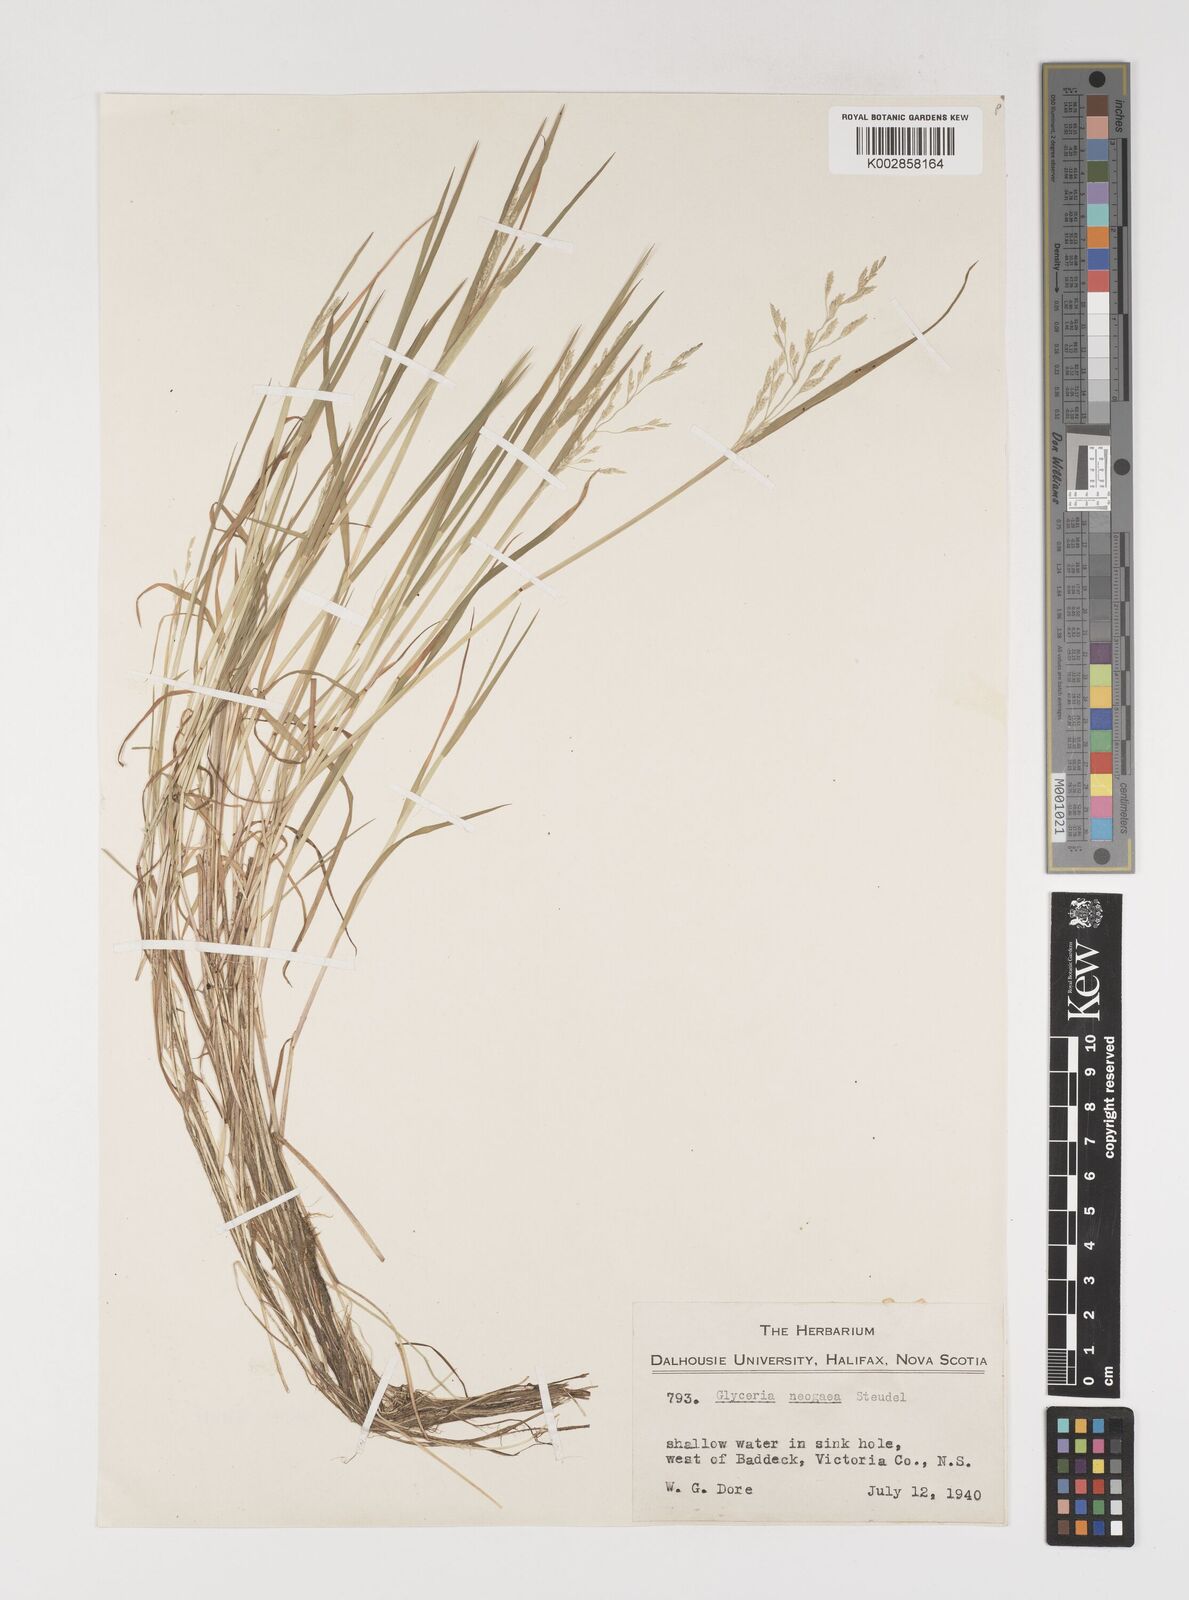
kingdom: Plantae
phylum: Tracheophyta
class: Liliopsida
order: Poales
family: Poaceae
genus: Torreyochloa
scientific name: Torreyochloa pallida
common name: Pale false mannagrass
